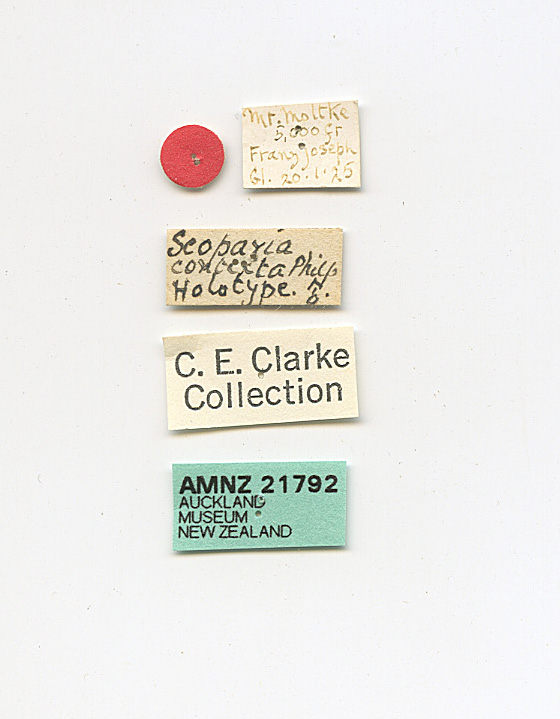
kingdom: Animalia
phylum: Arthropoda
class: Insecta
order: Lepidoptera
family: Crambidae
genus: Scoparia
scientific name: Scoparia contexta
